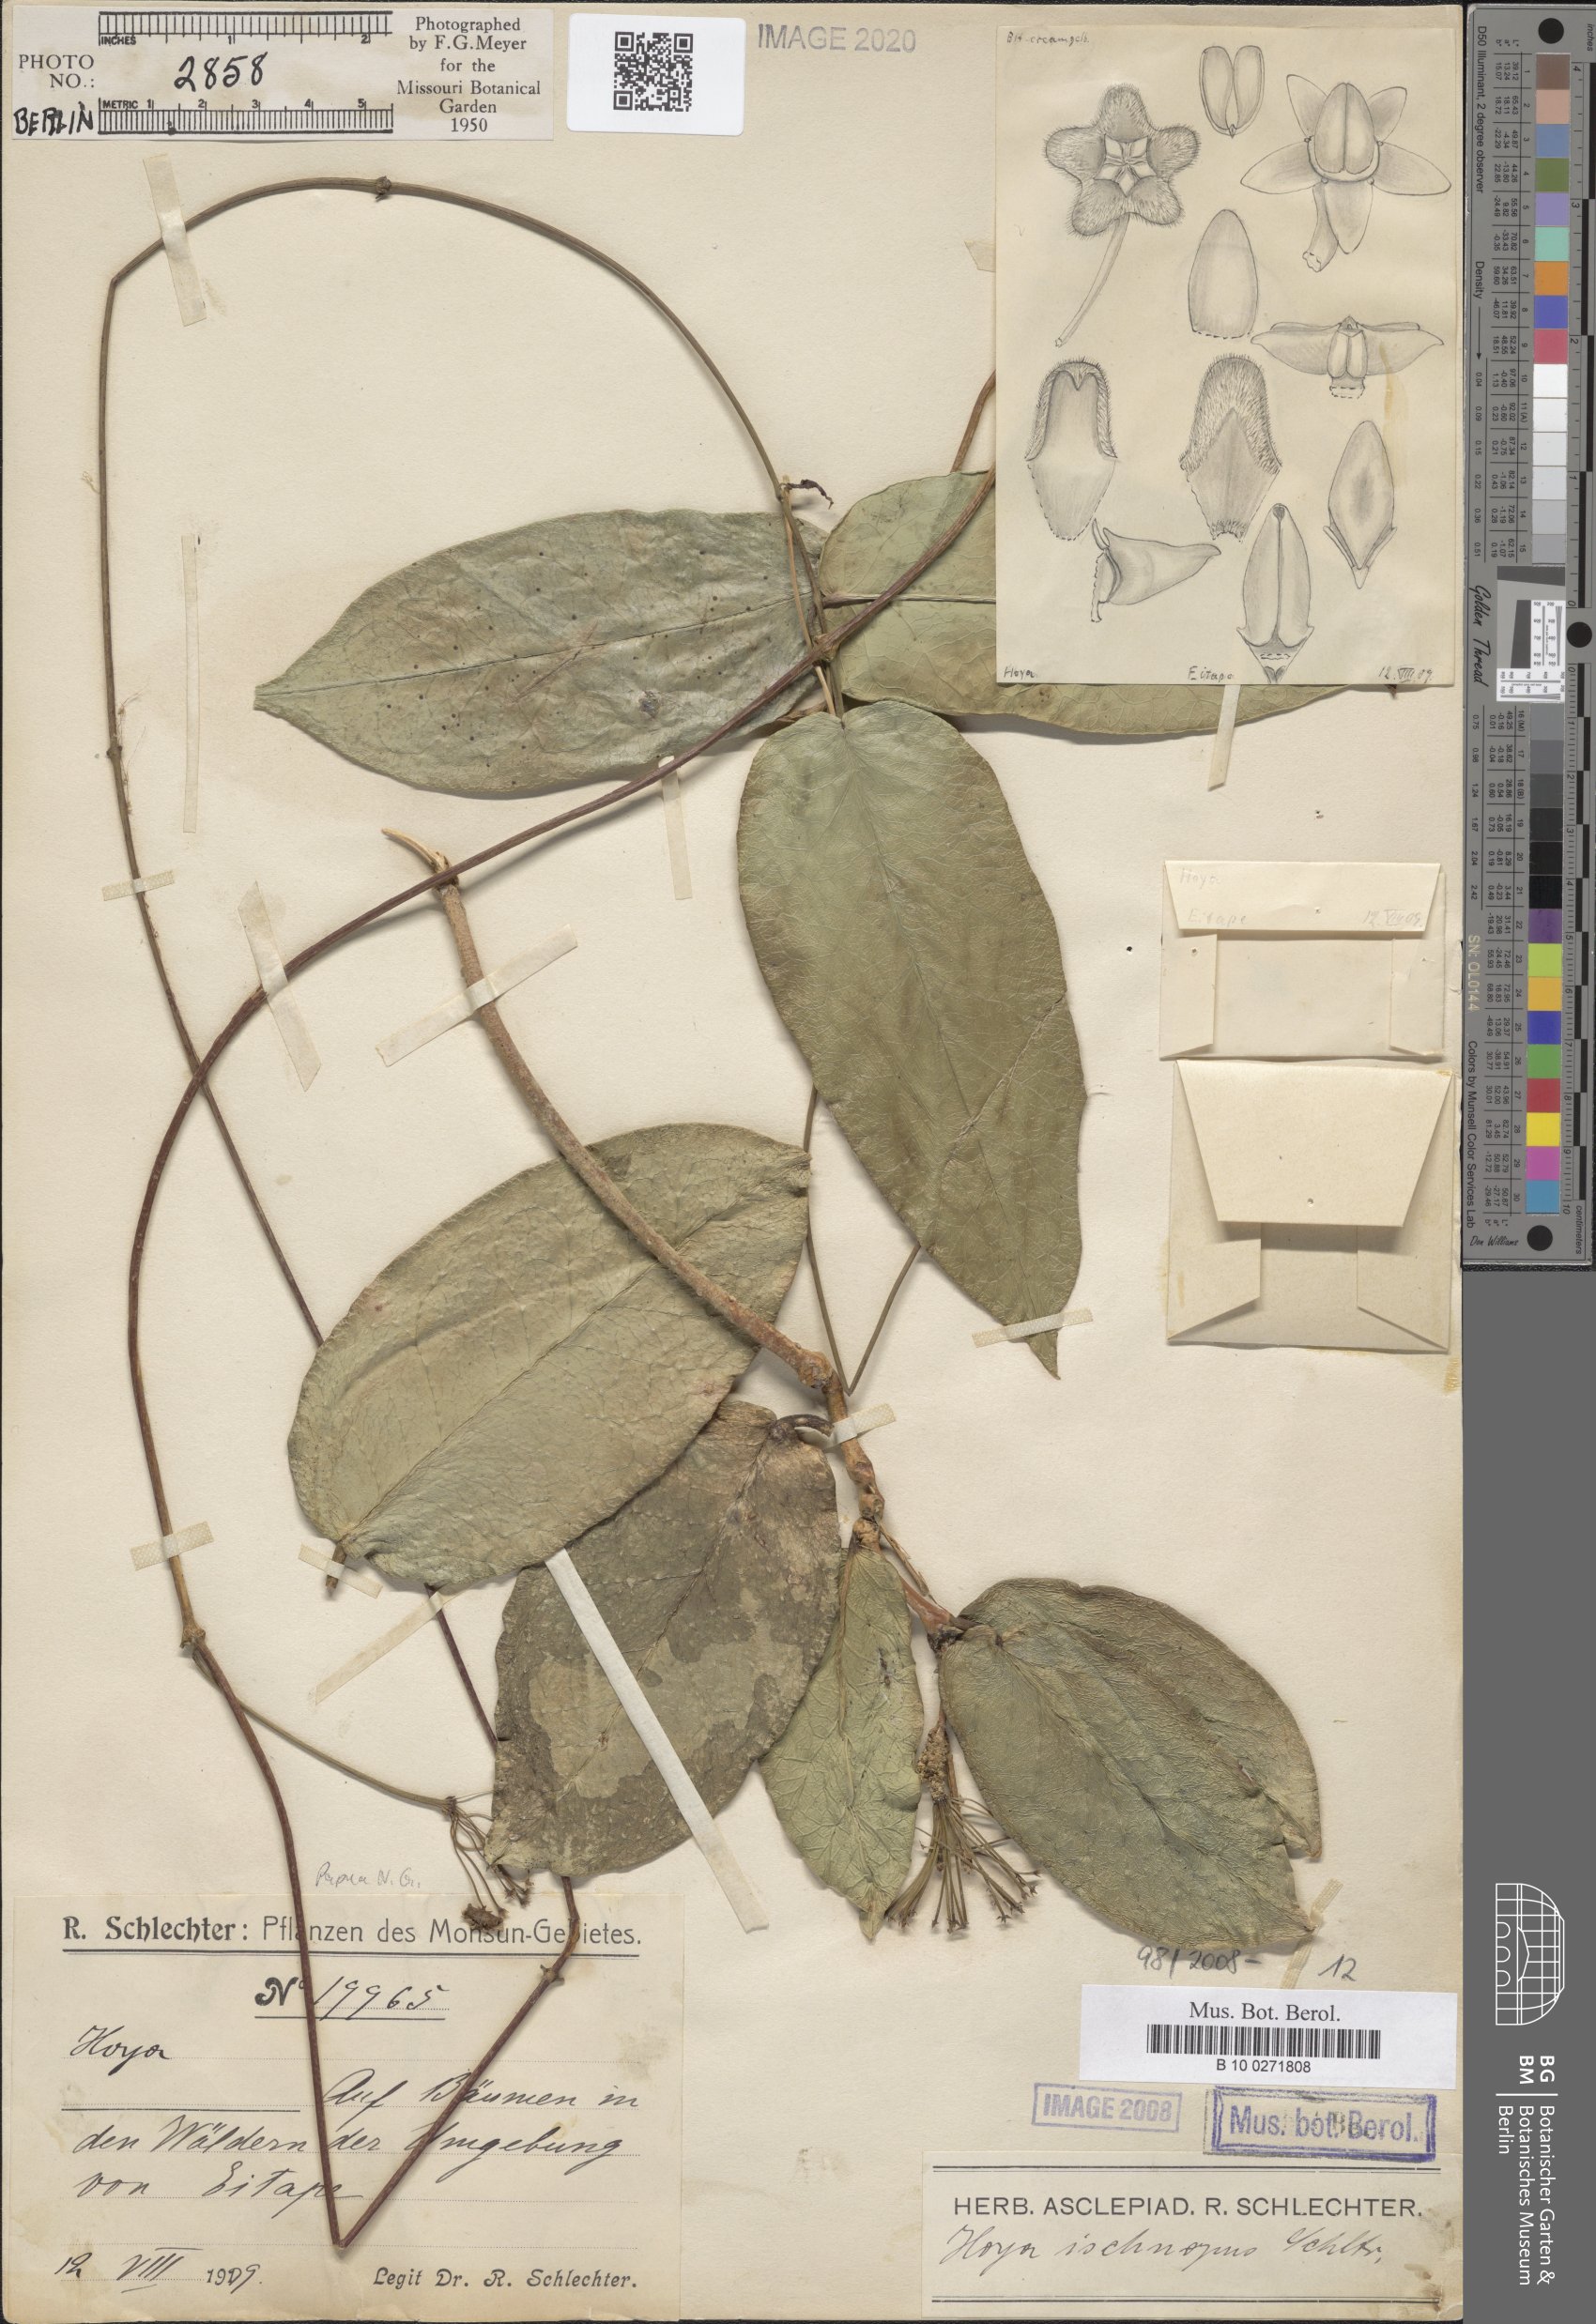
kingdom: Plantae
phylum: Tracheophyta
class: Magnoliopsida
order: Gentianales
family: Apocynaceae
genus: Hoya
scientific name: Hoya ischnopus
